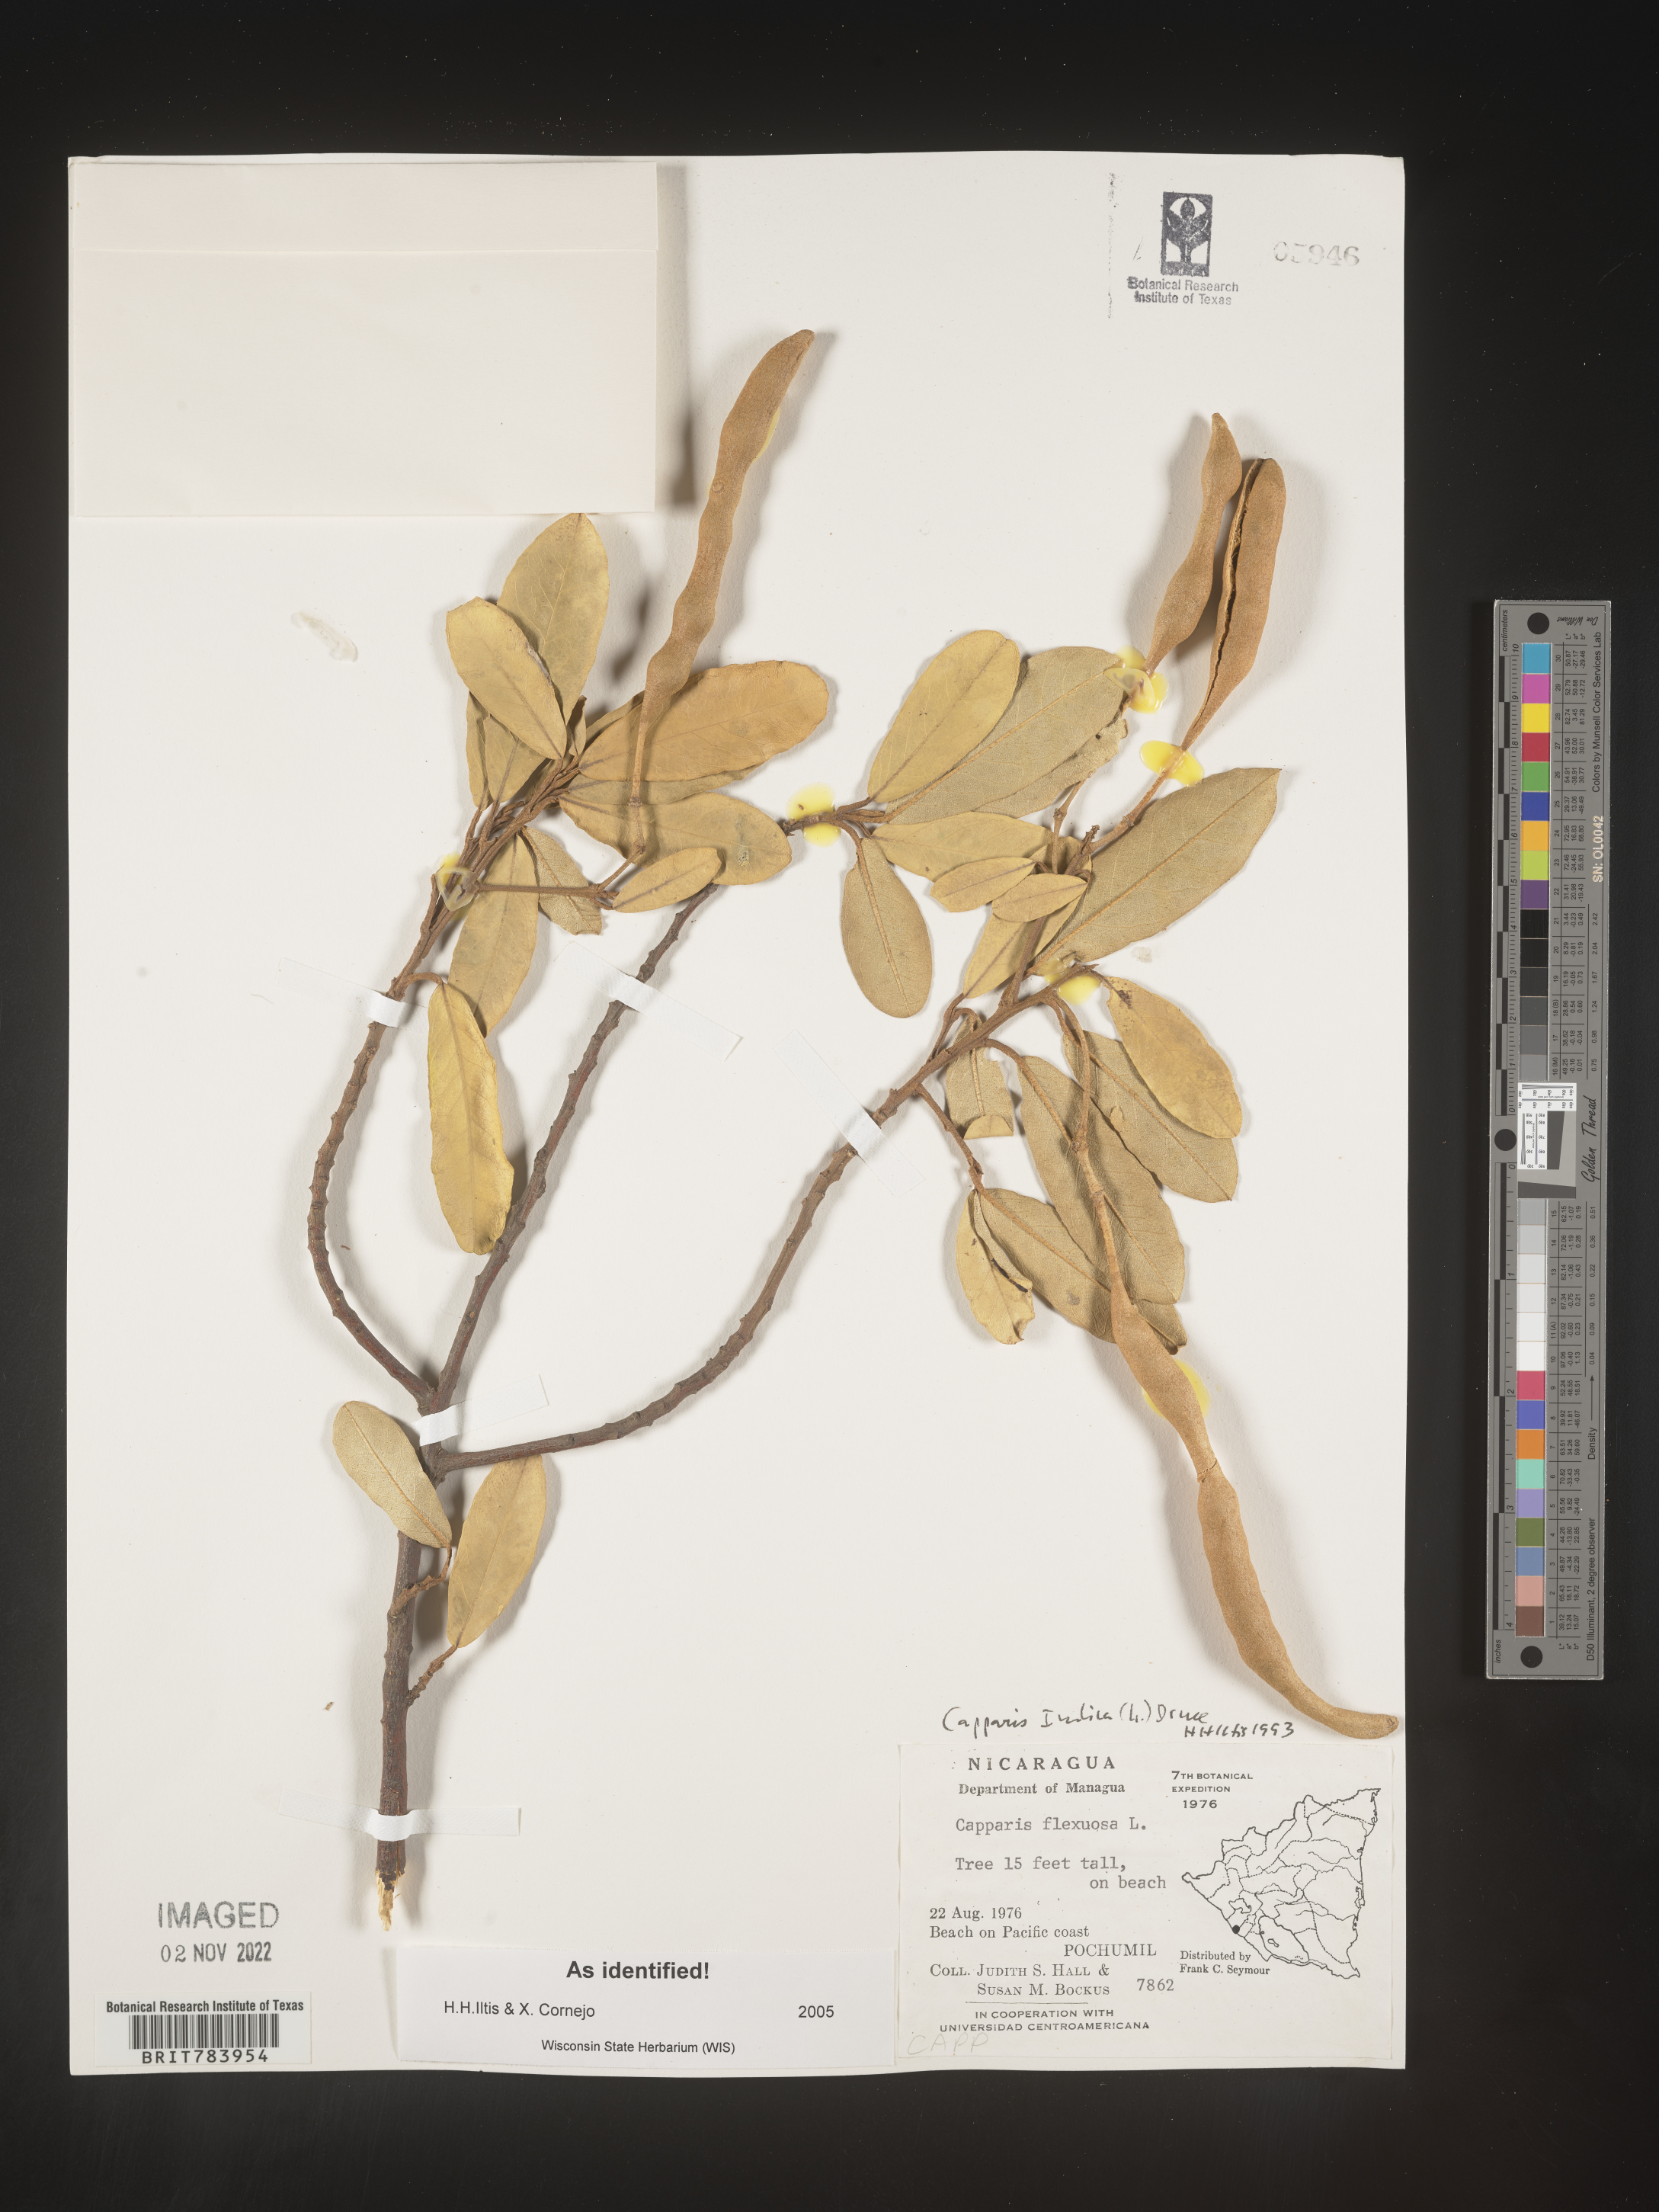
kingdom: Plantae
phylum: Tracheophyta
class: Magnoliopsida
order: Brassicales
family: Capparaceae
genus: Capparis
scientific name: Capparis
